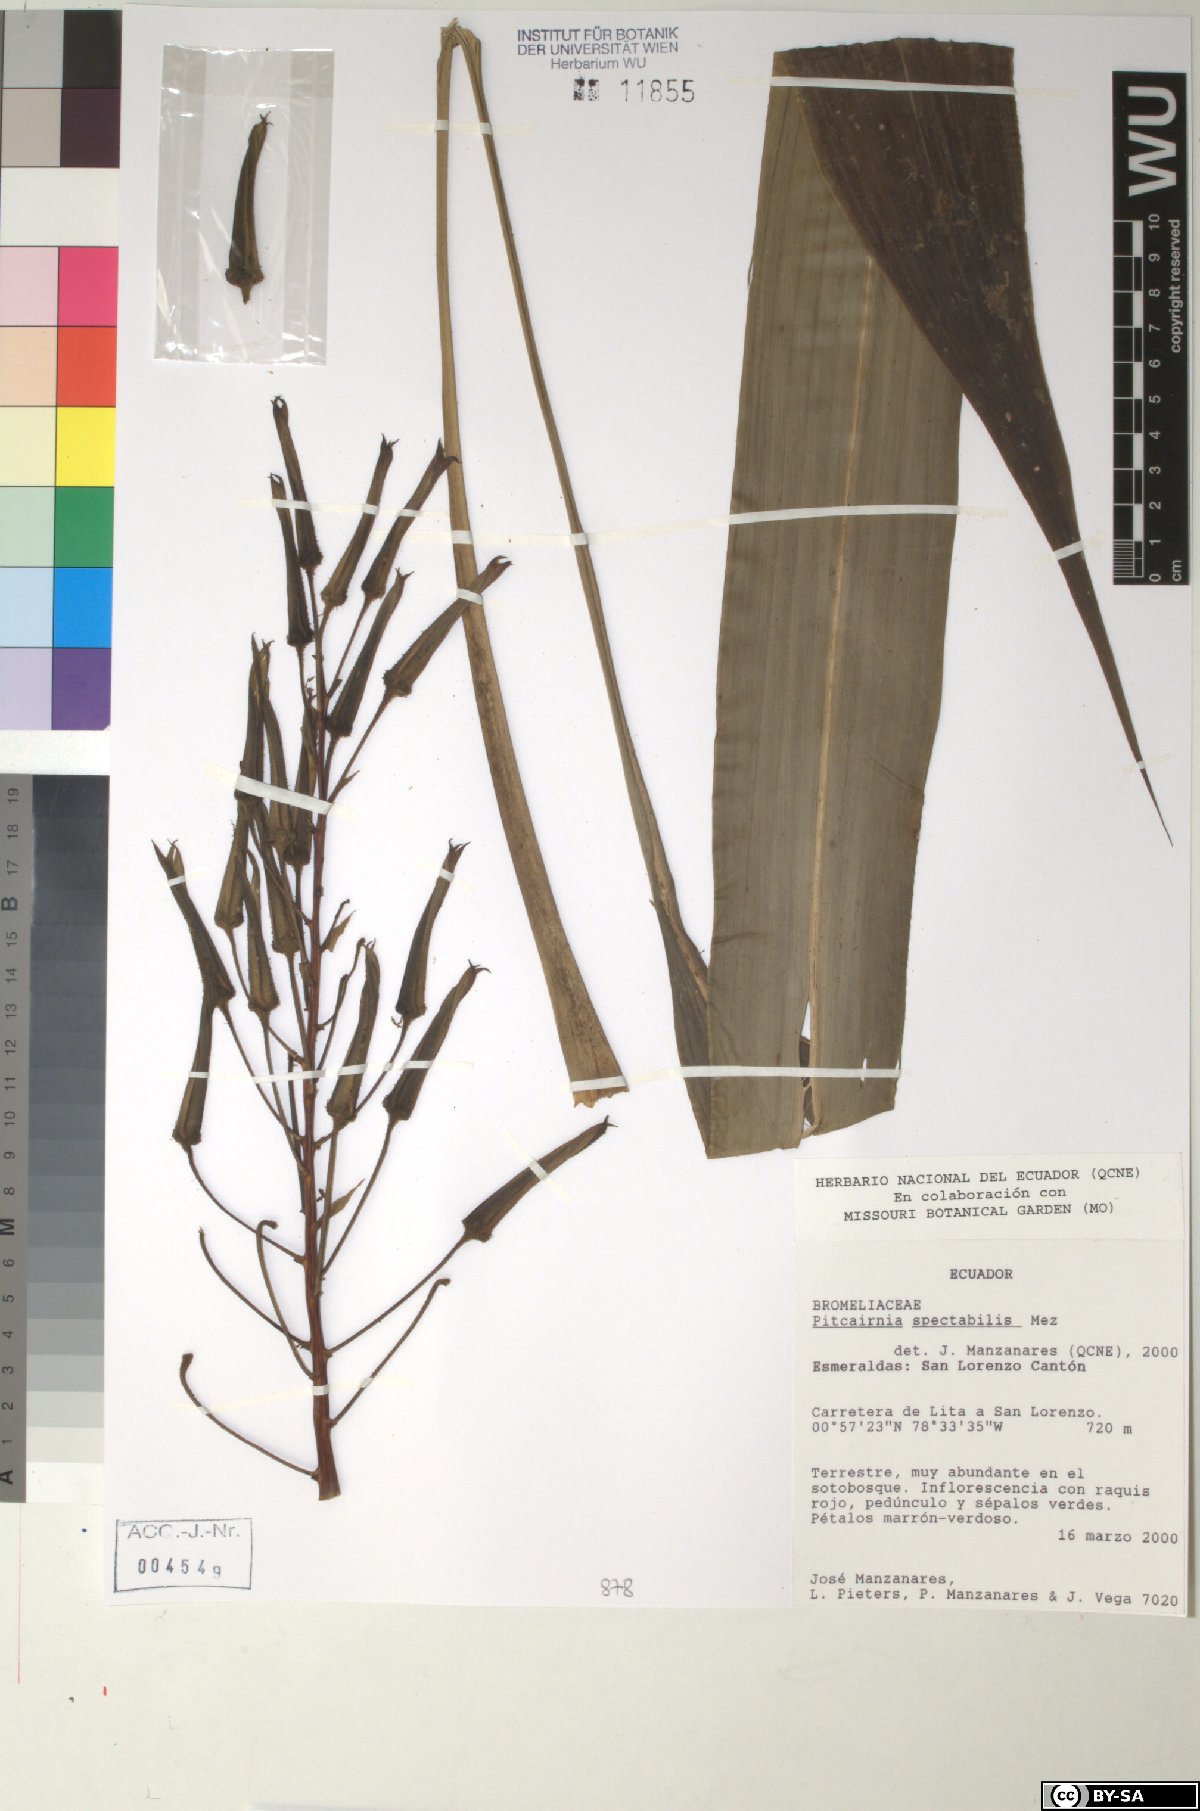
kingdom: Plantae
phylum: Tracheophyta
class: Liliopsida
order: Poales
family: Bromeliaceae
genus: Pitcairnia
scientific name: Pitcairnia spectabilis
